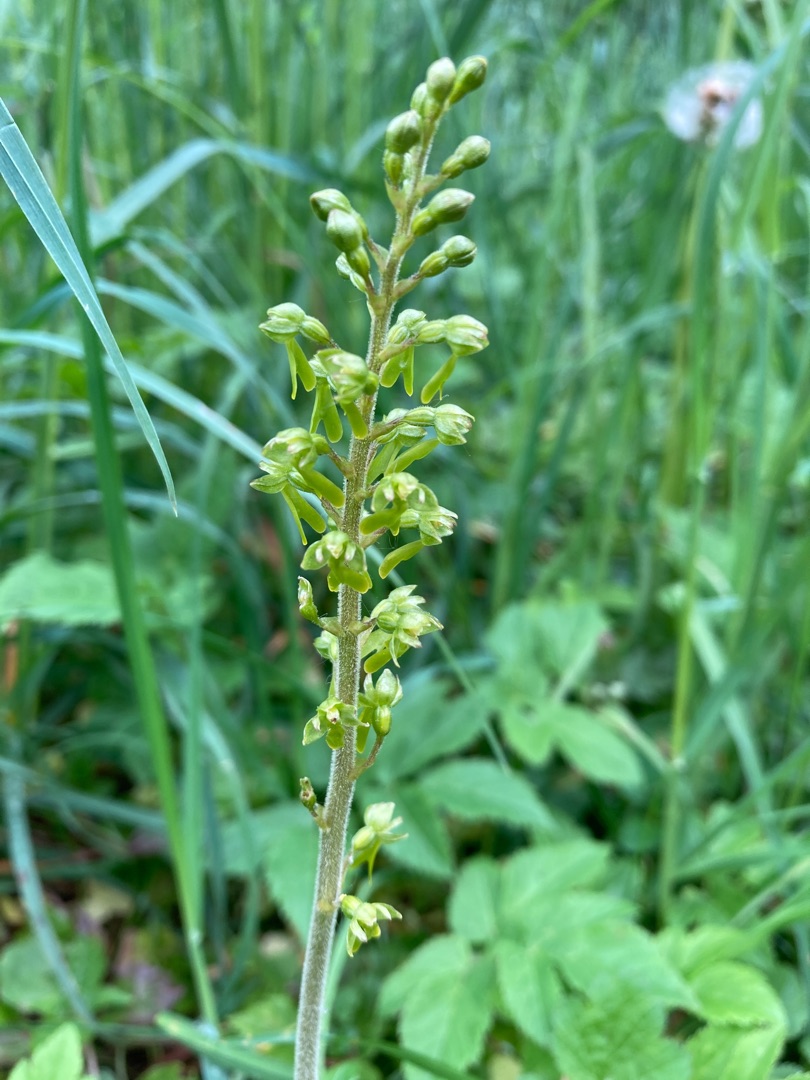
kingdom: Plantae
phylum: Tracheophyta
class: Liliopsida
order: Asparagales
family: Orchidaceae
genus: Neottia
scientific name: Neottia ovata
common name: Ægbladet fliglæbe
